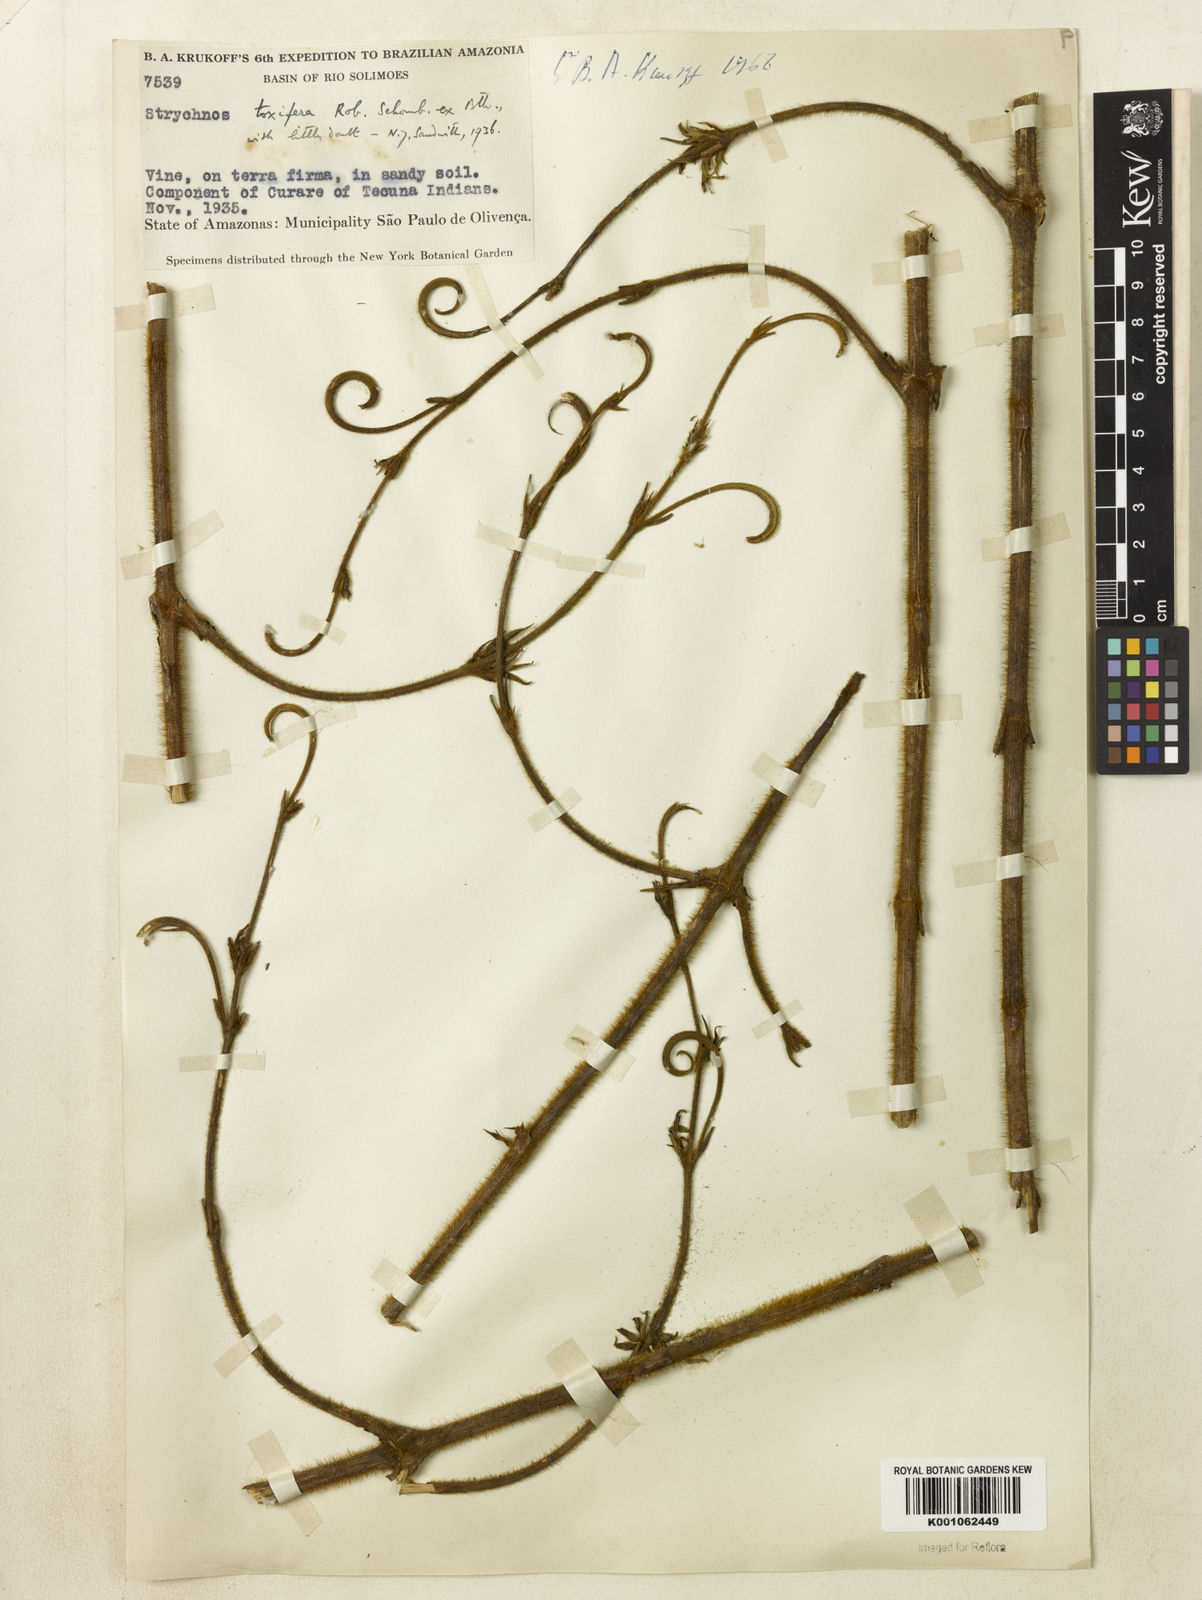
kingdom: Plantae
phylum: Tracheophyta
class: Magnoliopsida
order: Gentianales
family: Loganiaceae
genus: Strychnos
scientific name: Strychnos
